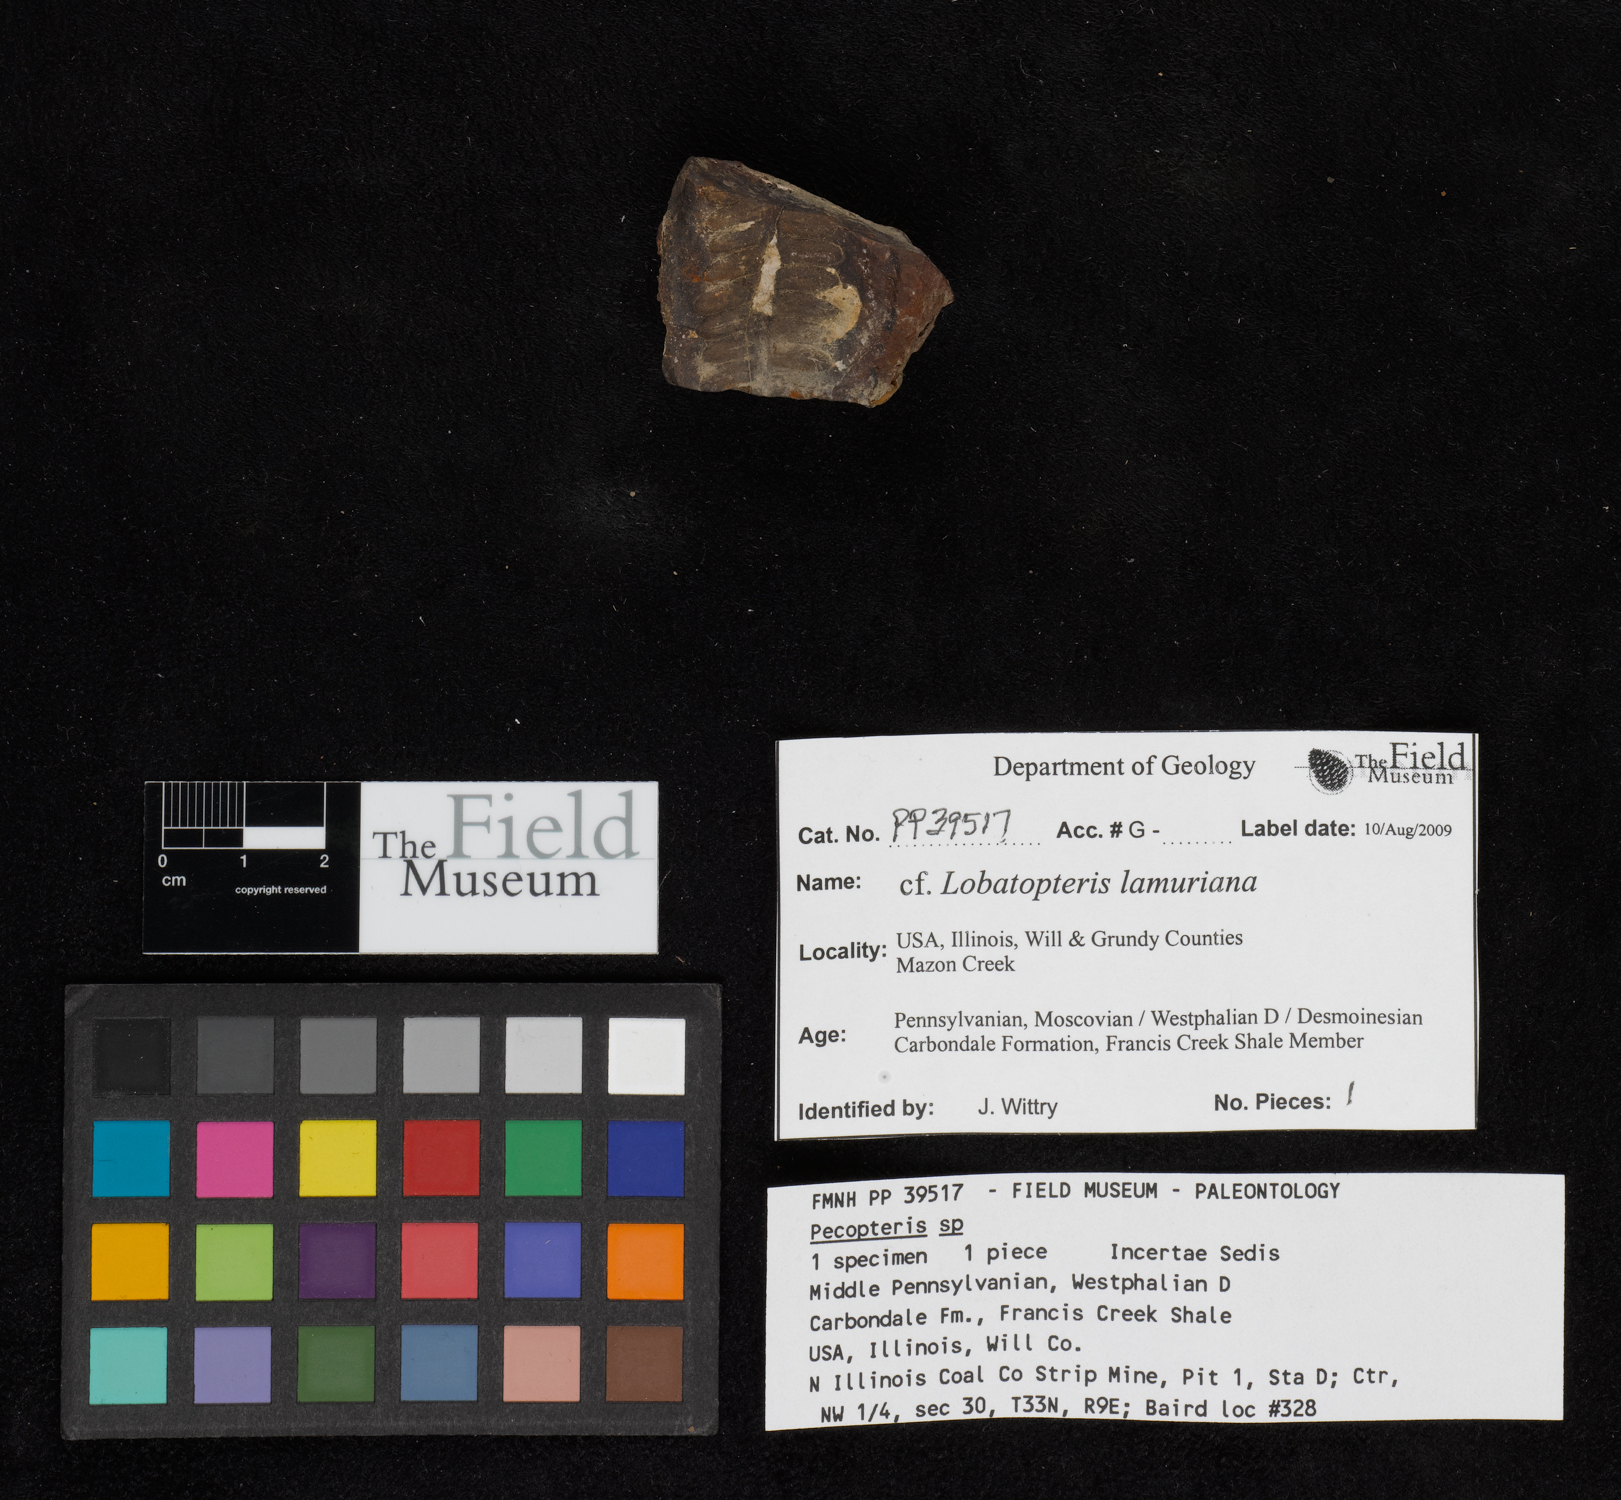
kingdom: Plantae
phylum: Tracheophyta
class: Polypodiopsida
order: Marattiales
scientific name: Marattiales
